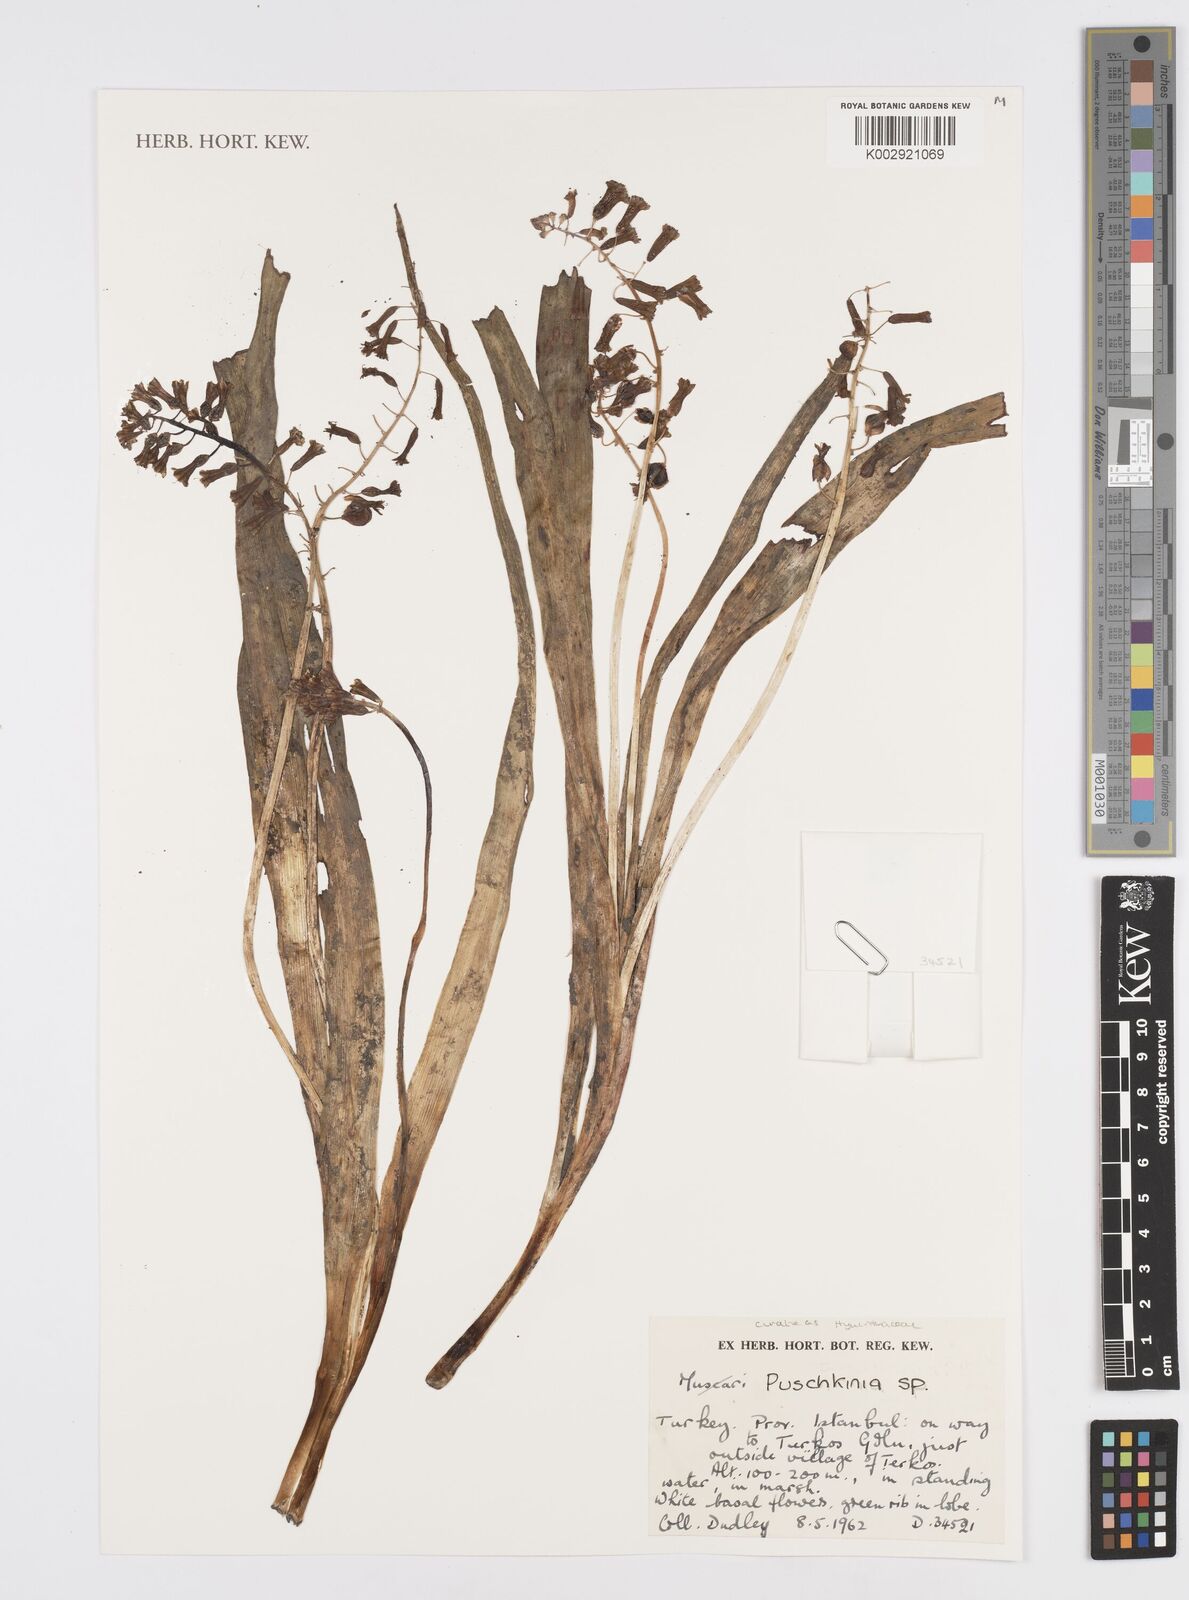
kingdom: Plantae
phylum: Tracheophyta
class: Liliopsida
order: Asparagales
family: Asparagaceae
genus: Puschkinia
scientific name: Puschkinia scilloides
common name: Striped squill
